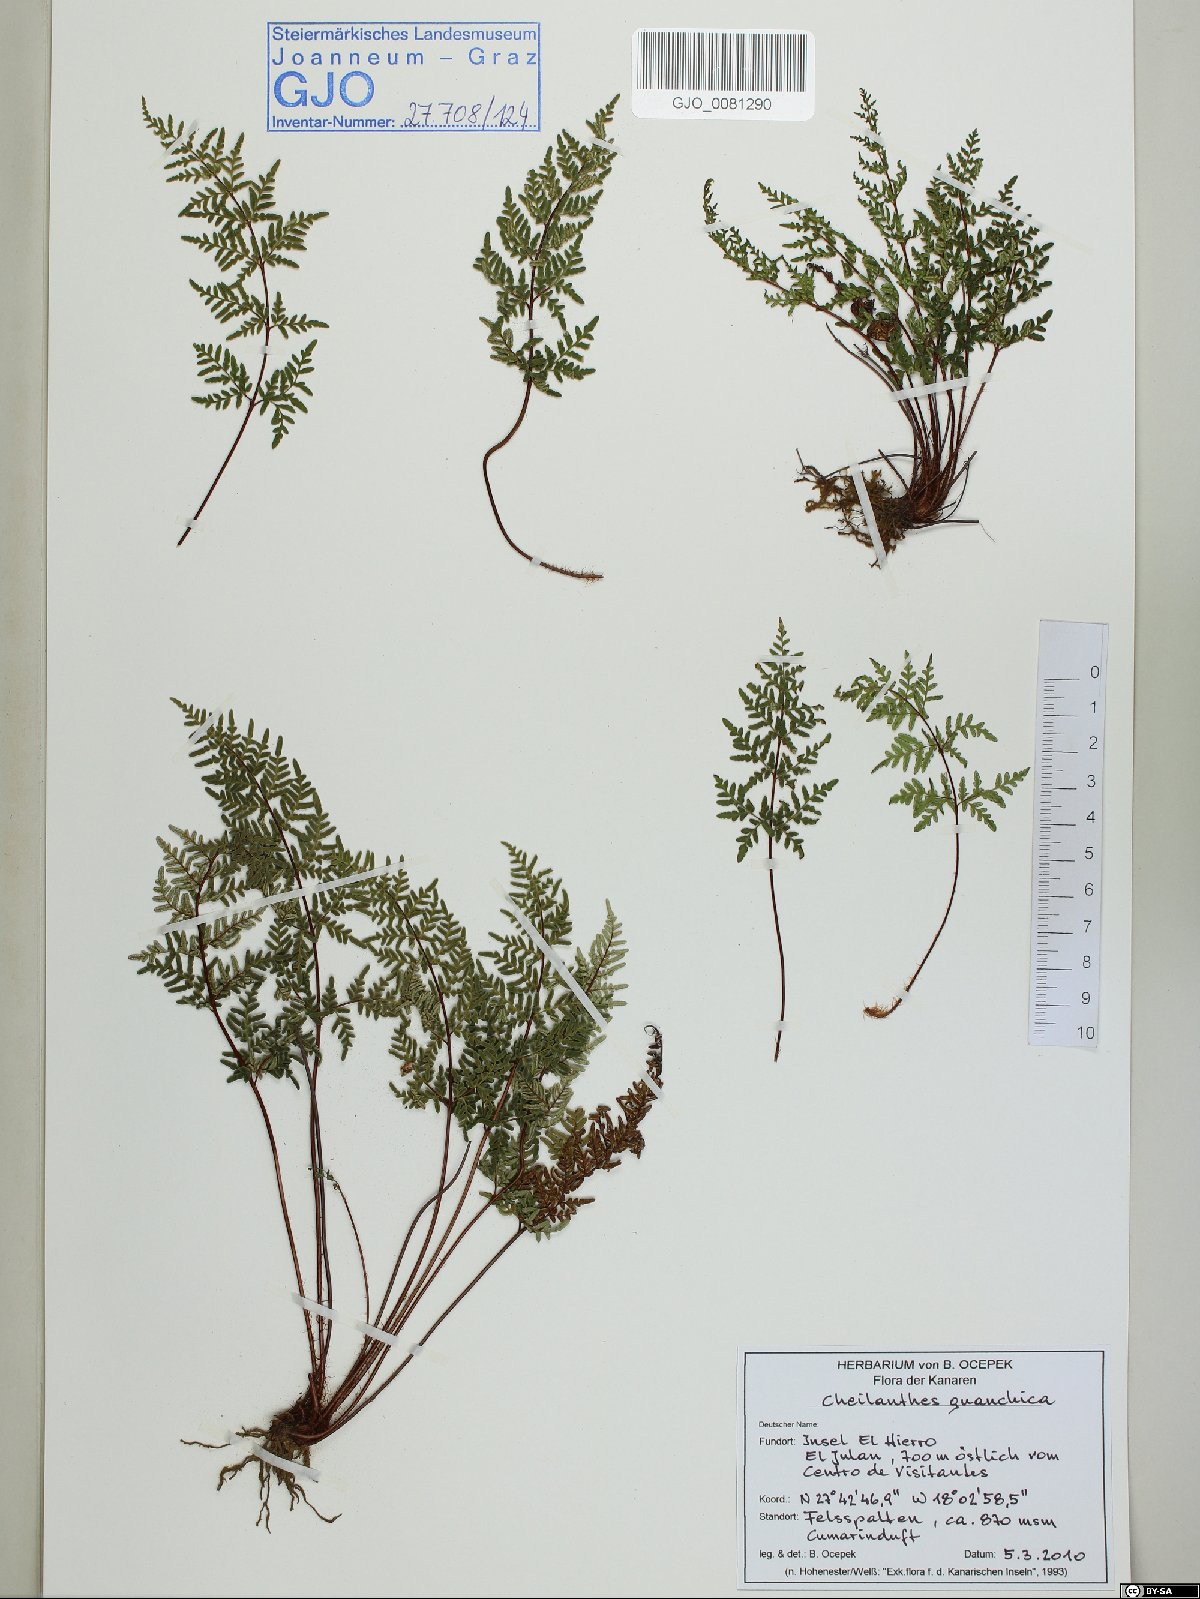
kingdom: Plantae
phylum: Tracheophyta
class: Polypodiopsida
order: Polypodiales
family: Pteridaceae
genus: Oeosporangium
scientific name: Oeosporangium guanchicum
